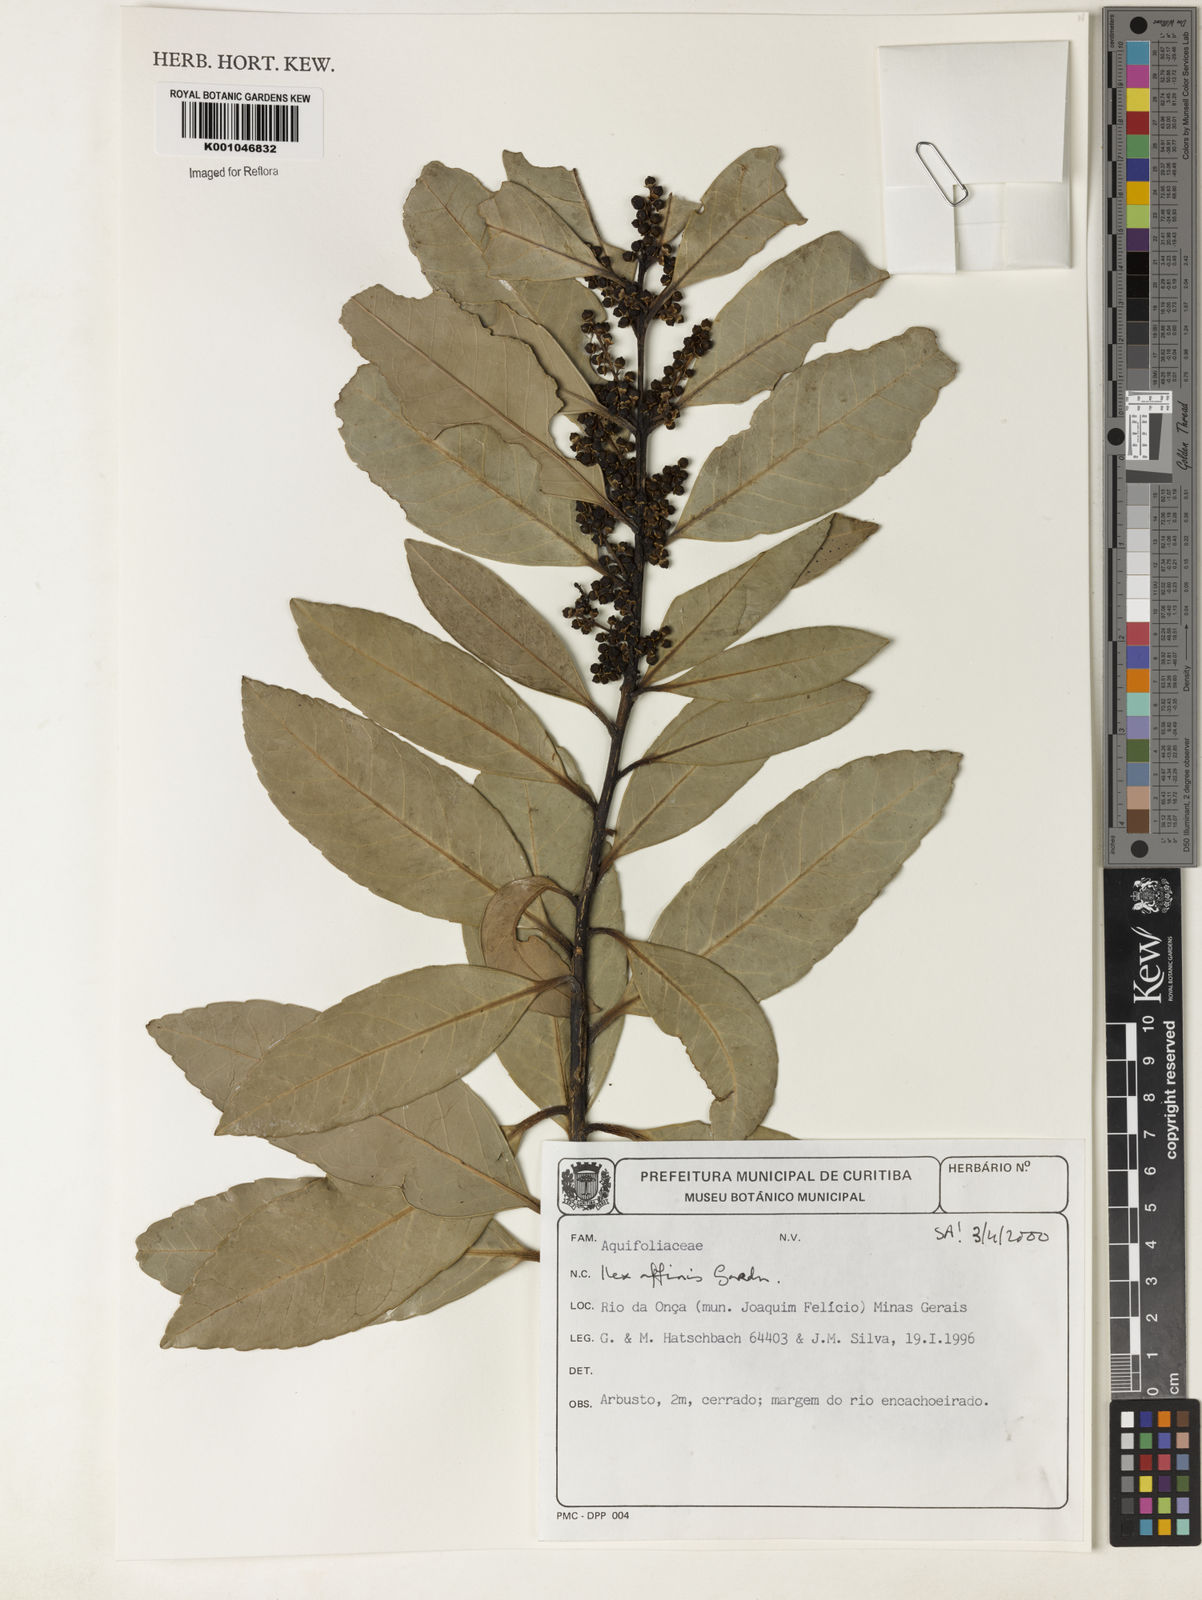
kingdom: Plantae
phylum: Tracheophyta
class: Magnoliopsida
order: Aquifoliales
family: Aquifoliaceae
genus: Ilex
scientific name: Ilex affinis
